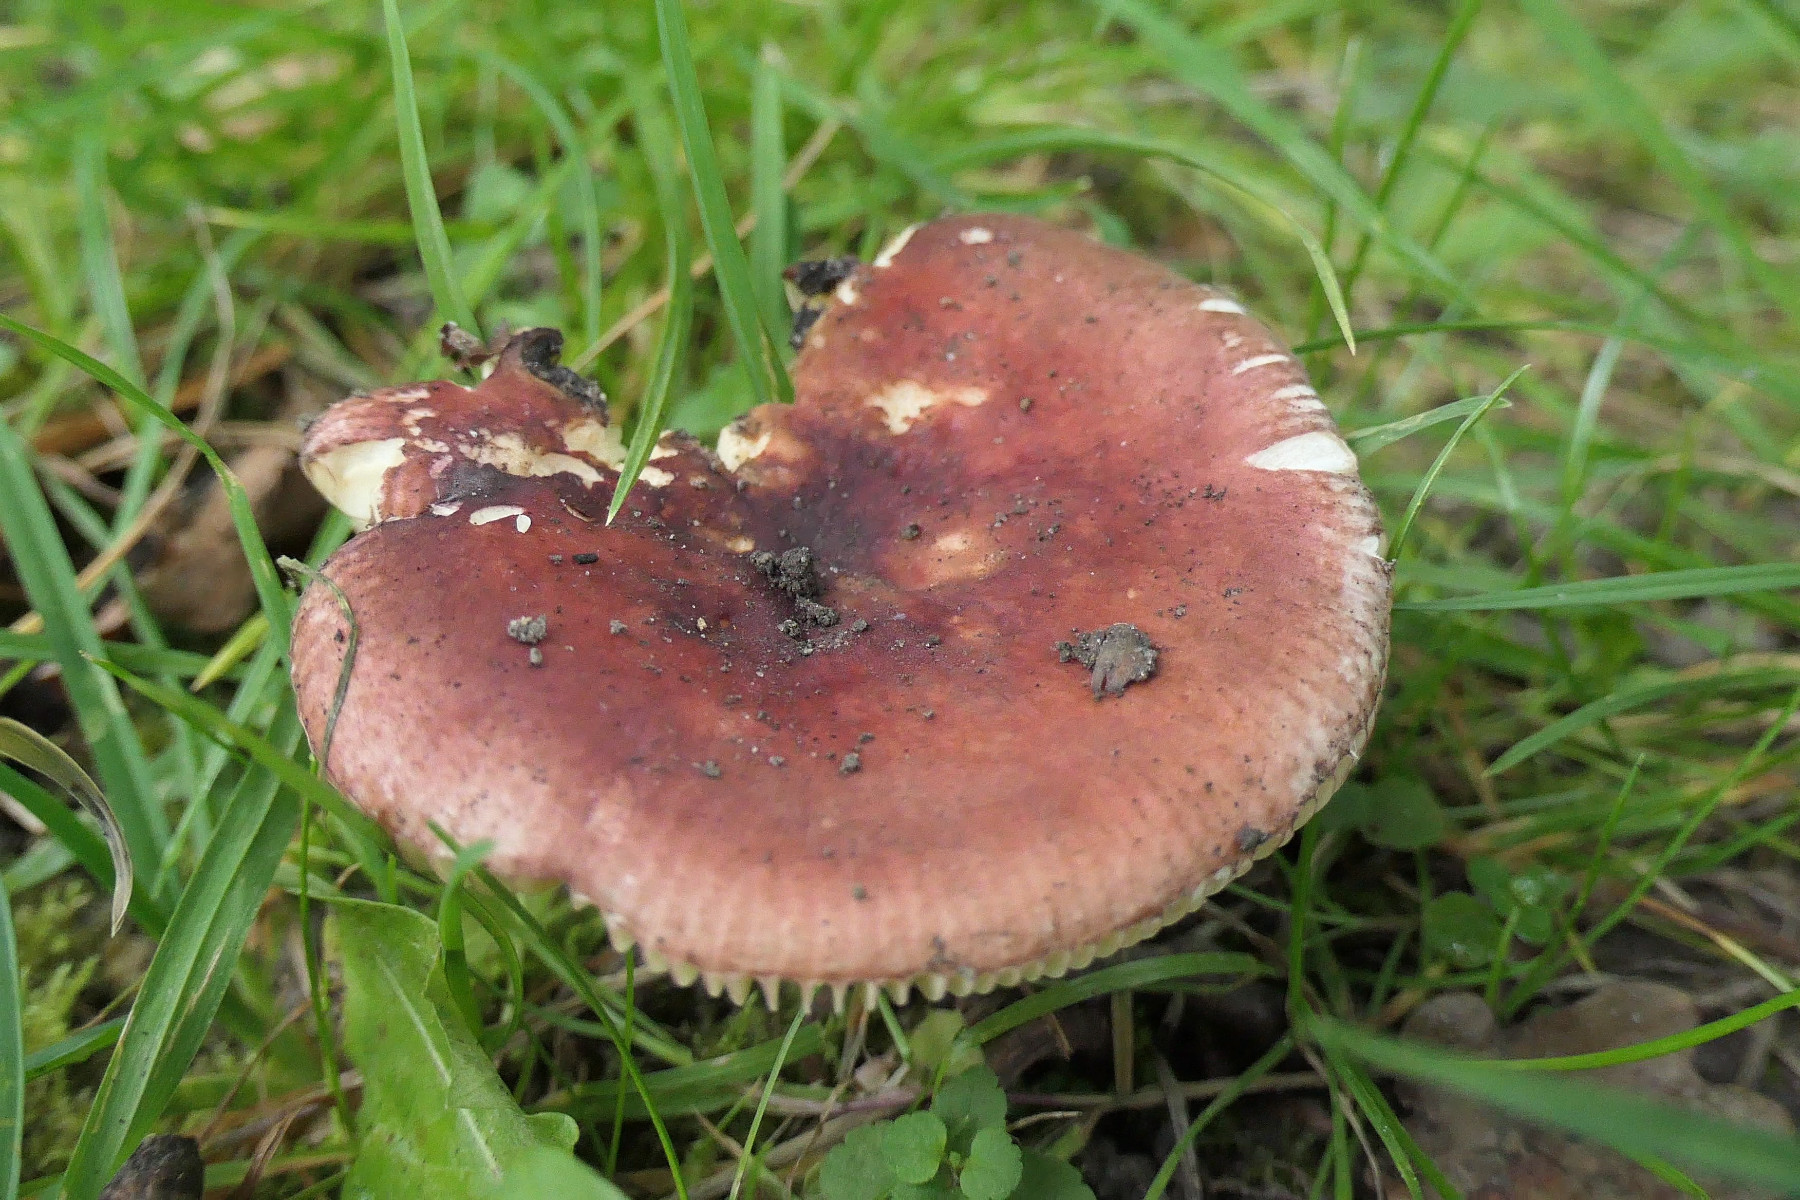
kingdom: Fungi
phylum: Basidiomycota
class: Agaricomycetes
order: Russulales
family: Russulaceae
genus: Russula
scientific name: Russula cuprea
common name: kanel-skørhat
